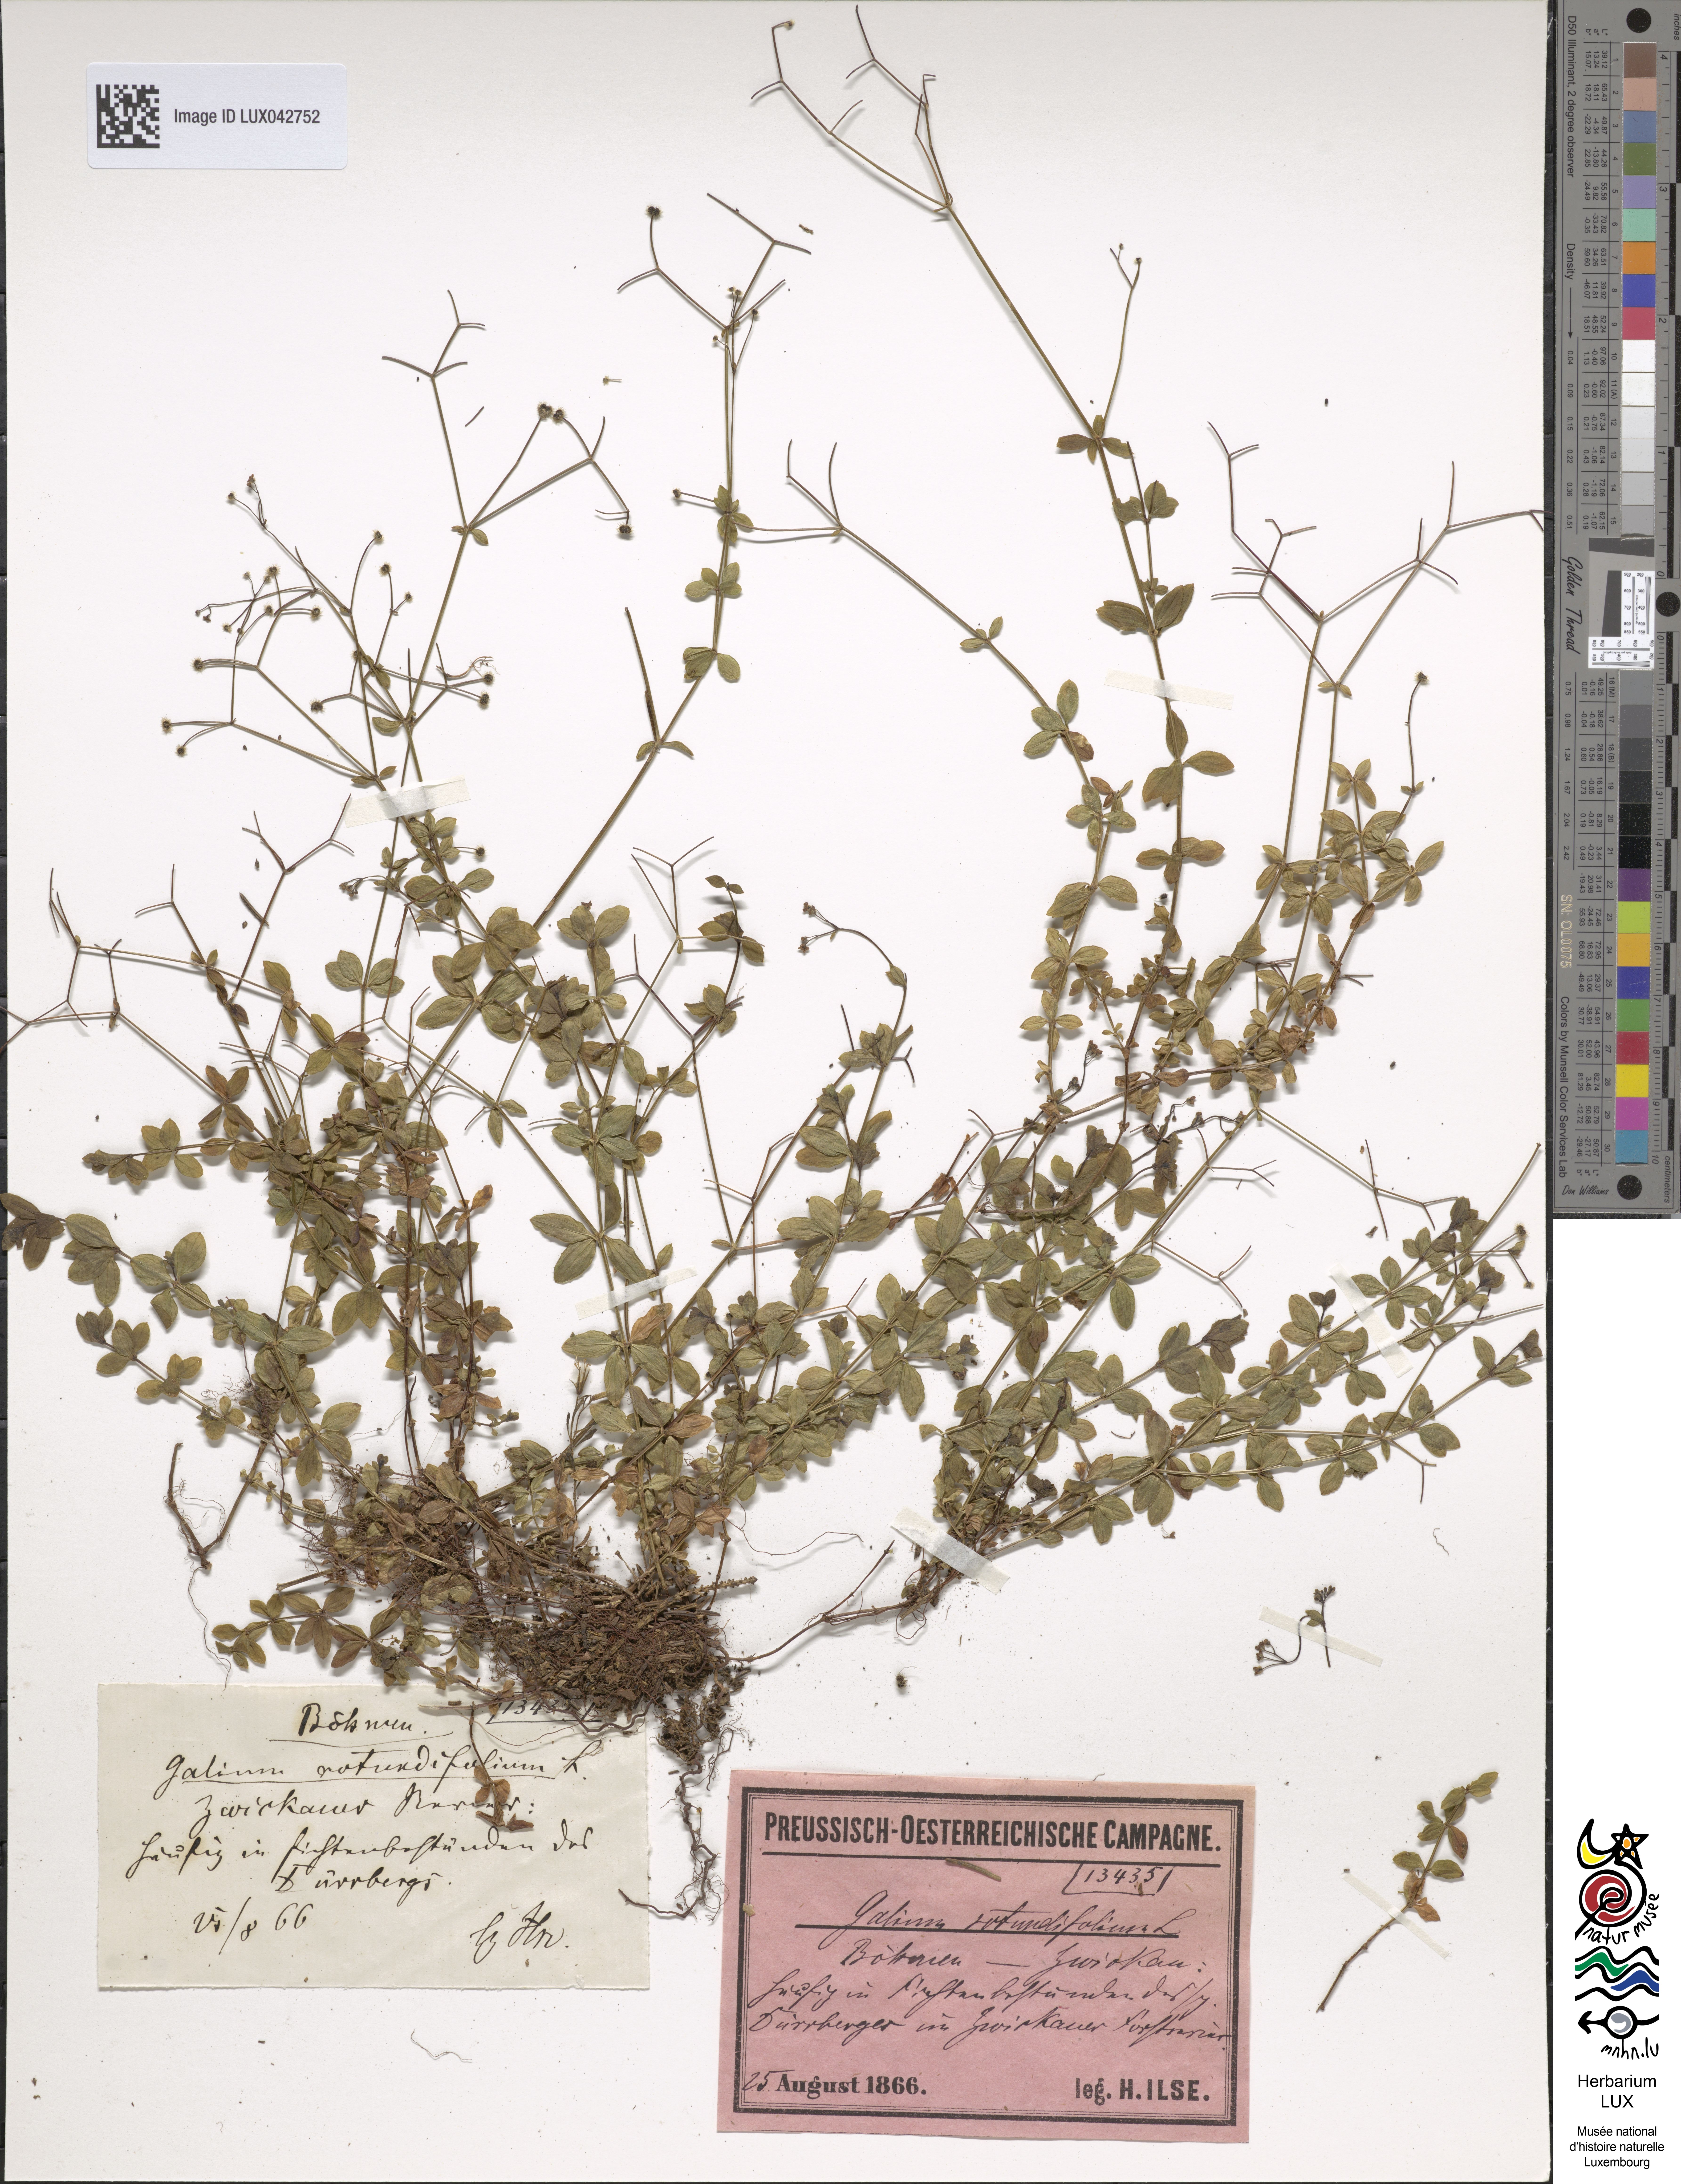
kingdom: Plantae
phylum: Tracheophyta
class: Magnoliopsida
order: Gentianales
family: Rubiaceae
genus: Galium
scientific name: Galium rotundifolium
